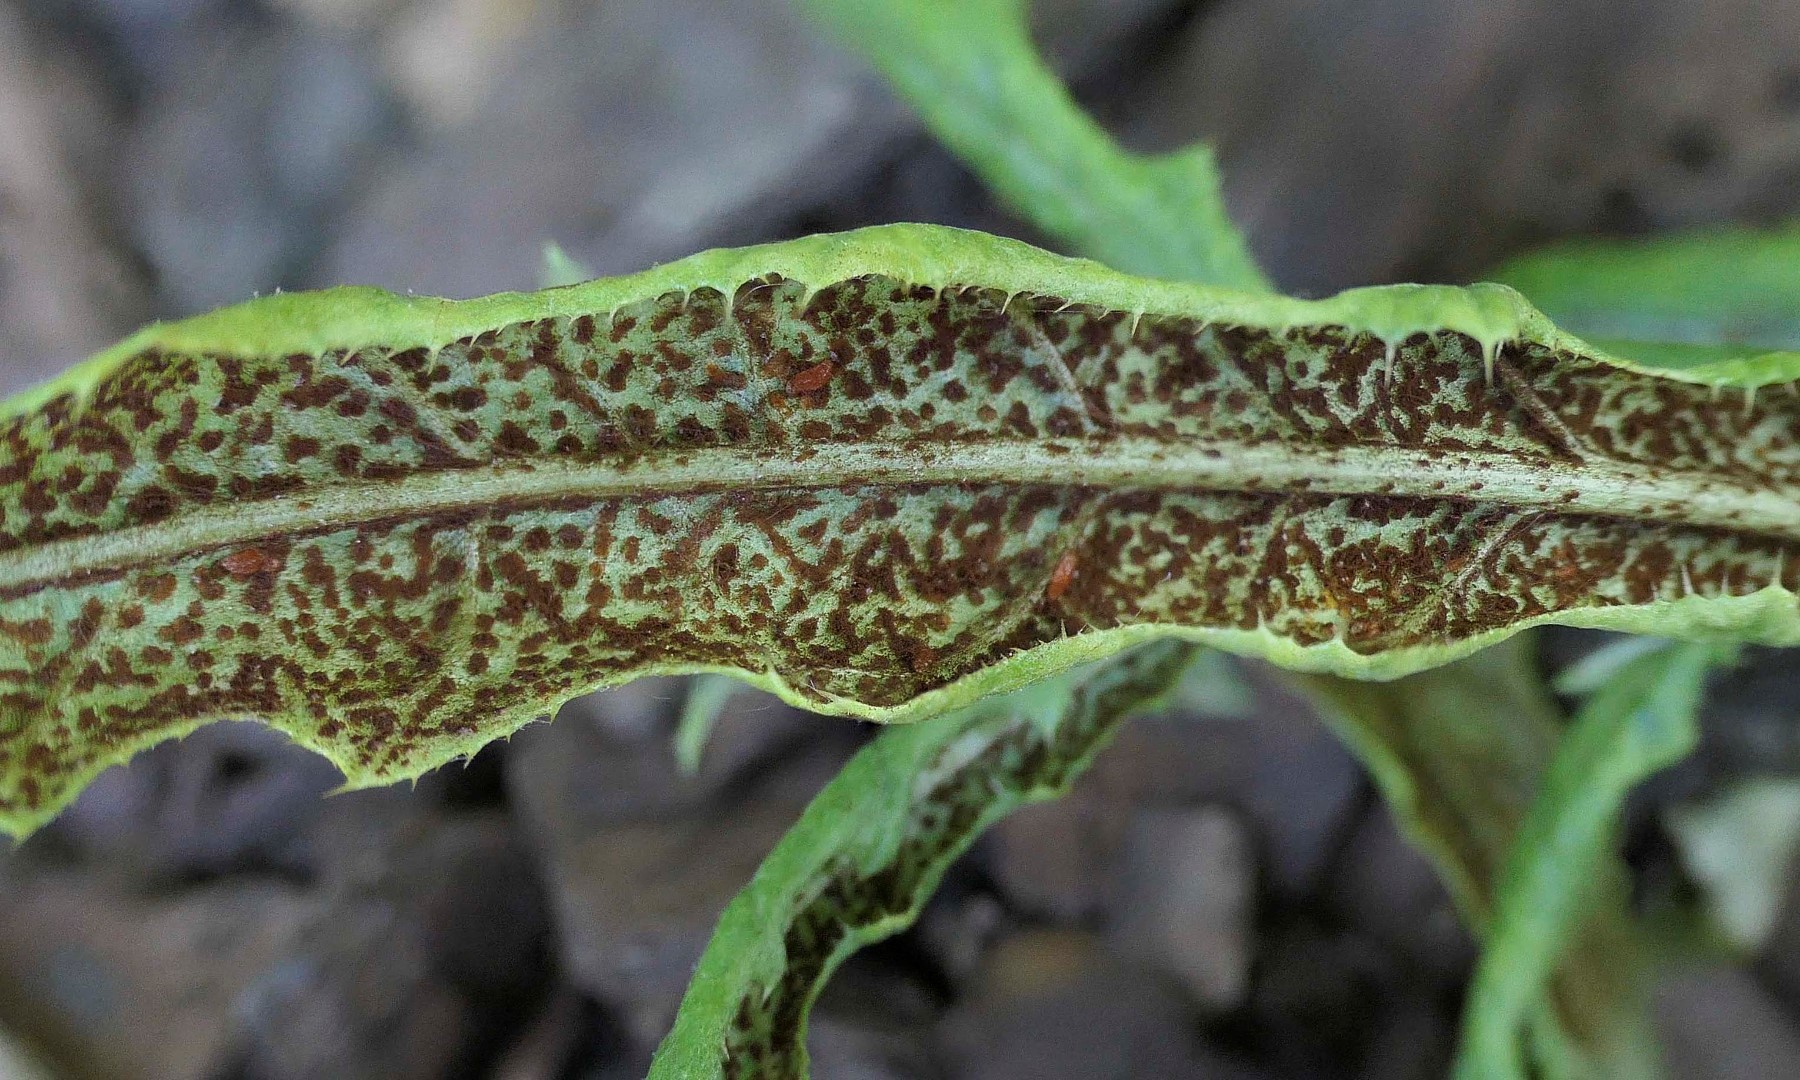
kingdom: Fungi
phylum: Basidiomycota
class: Pucciniomycetes
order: Pucciniales
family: Pucciniaceae
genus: Puccinia
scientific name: Puccinia suaveolens
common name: tidsel-tvecellerust
